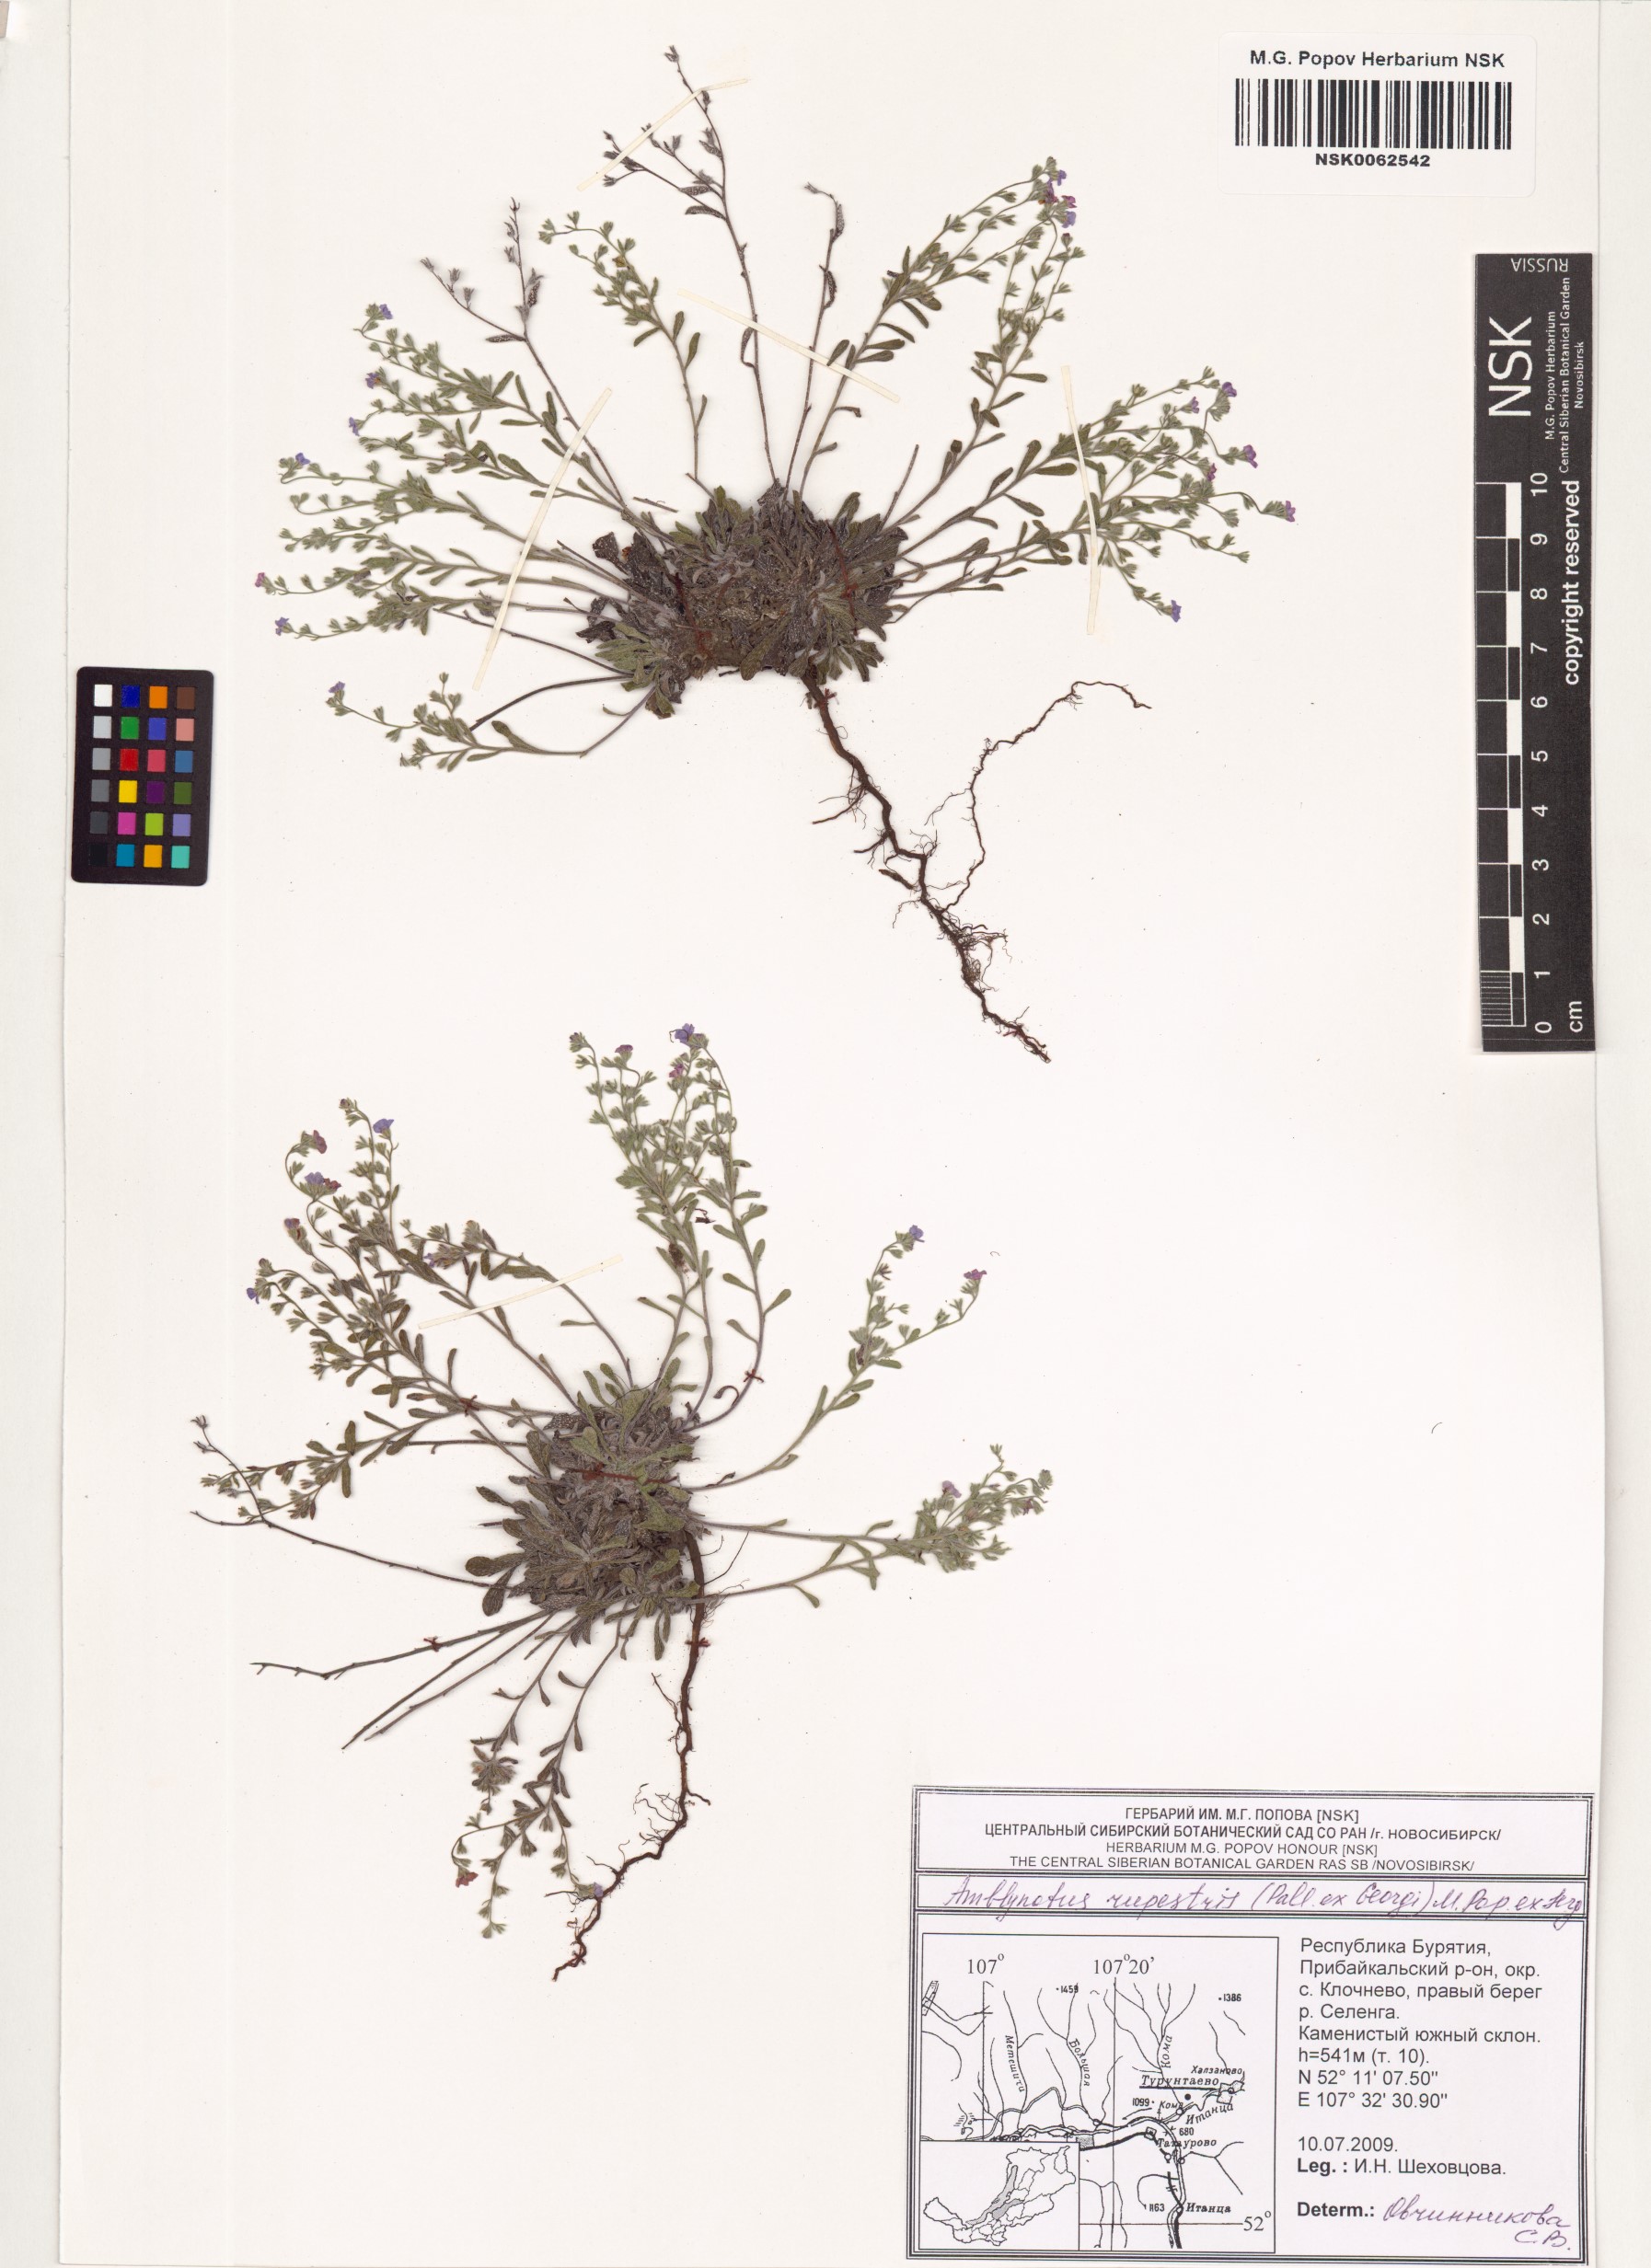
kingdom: Plantae
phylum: Tracheophyta
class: Magnoliopsida
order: Boraginales
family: Boraginaceae
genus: Eritrichium
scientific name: Eritrichium rupestre
